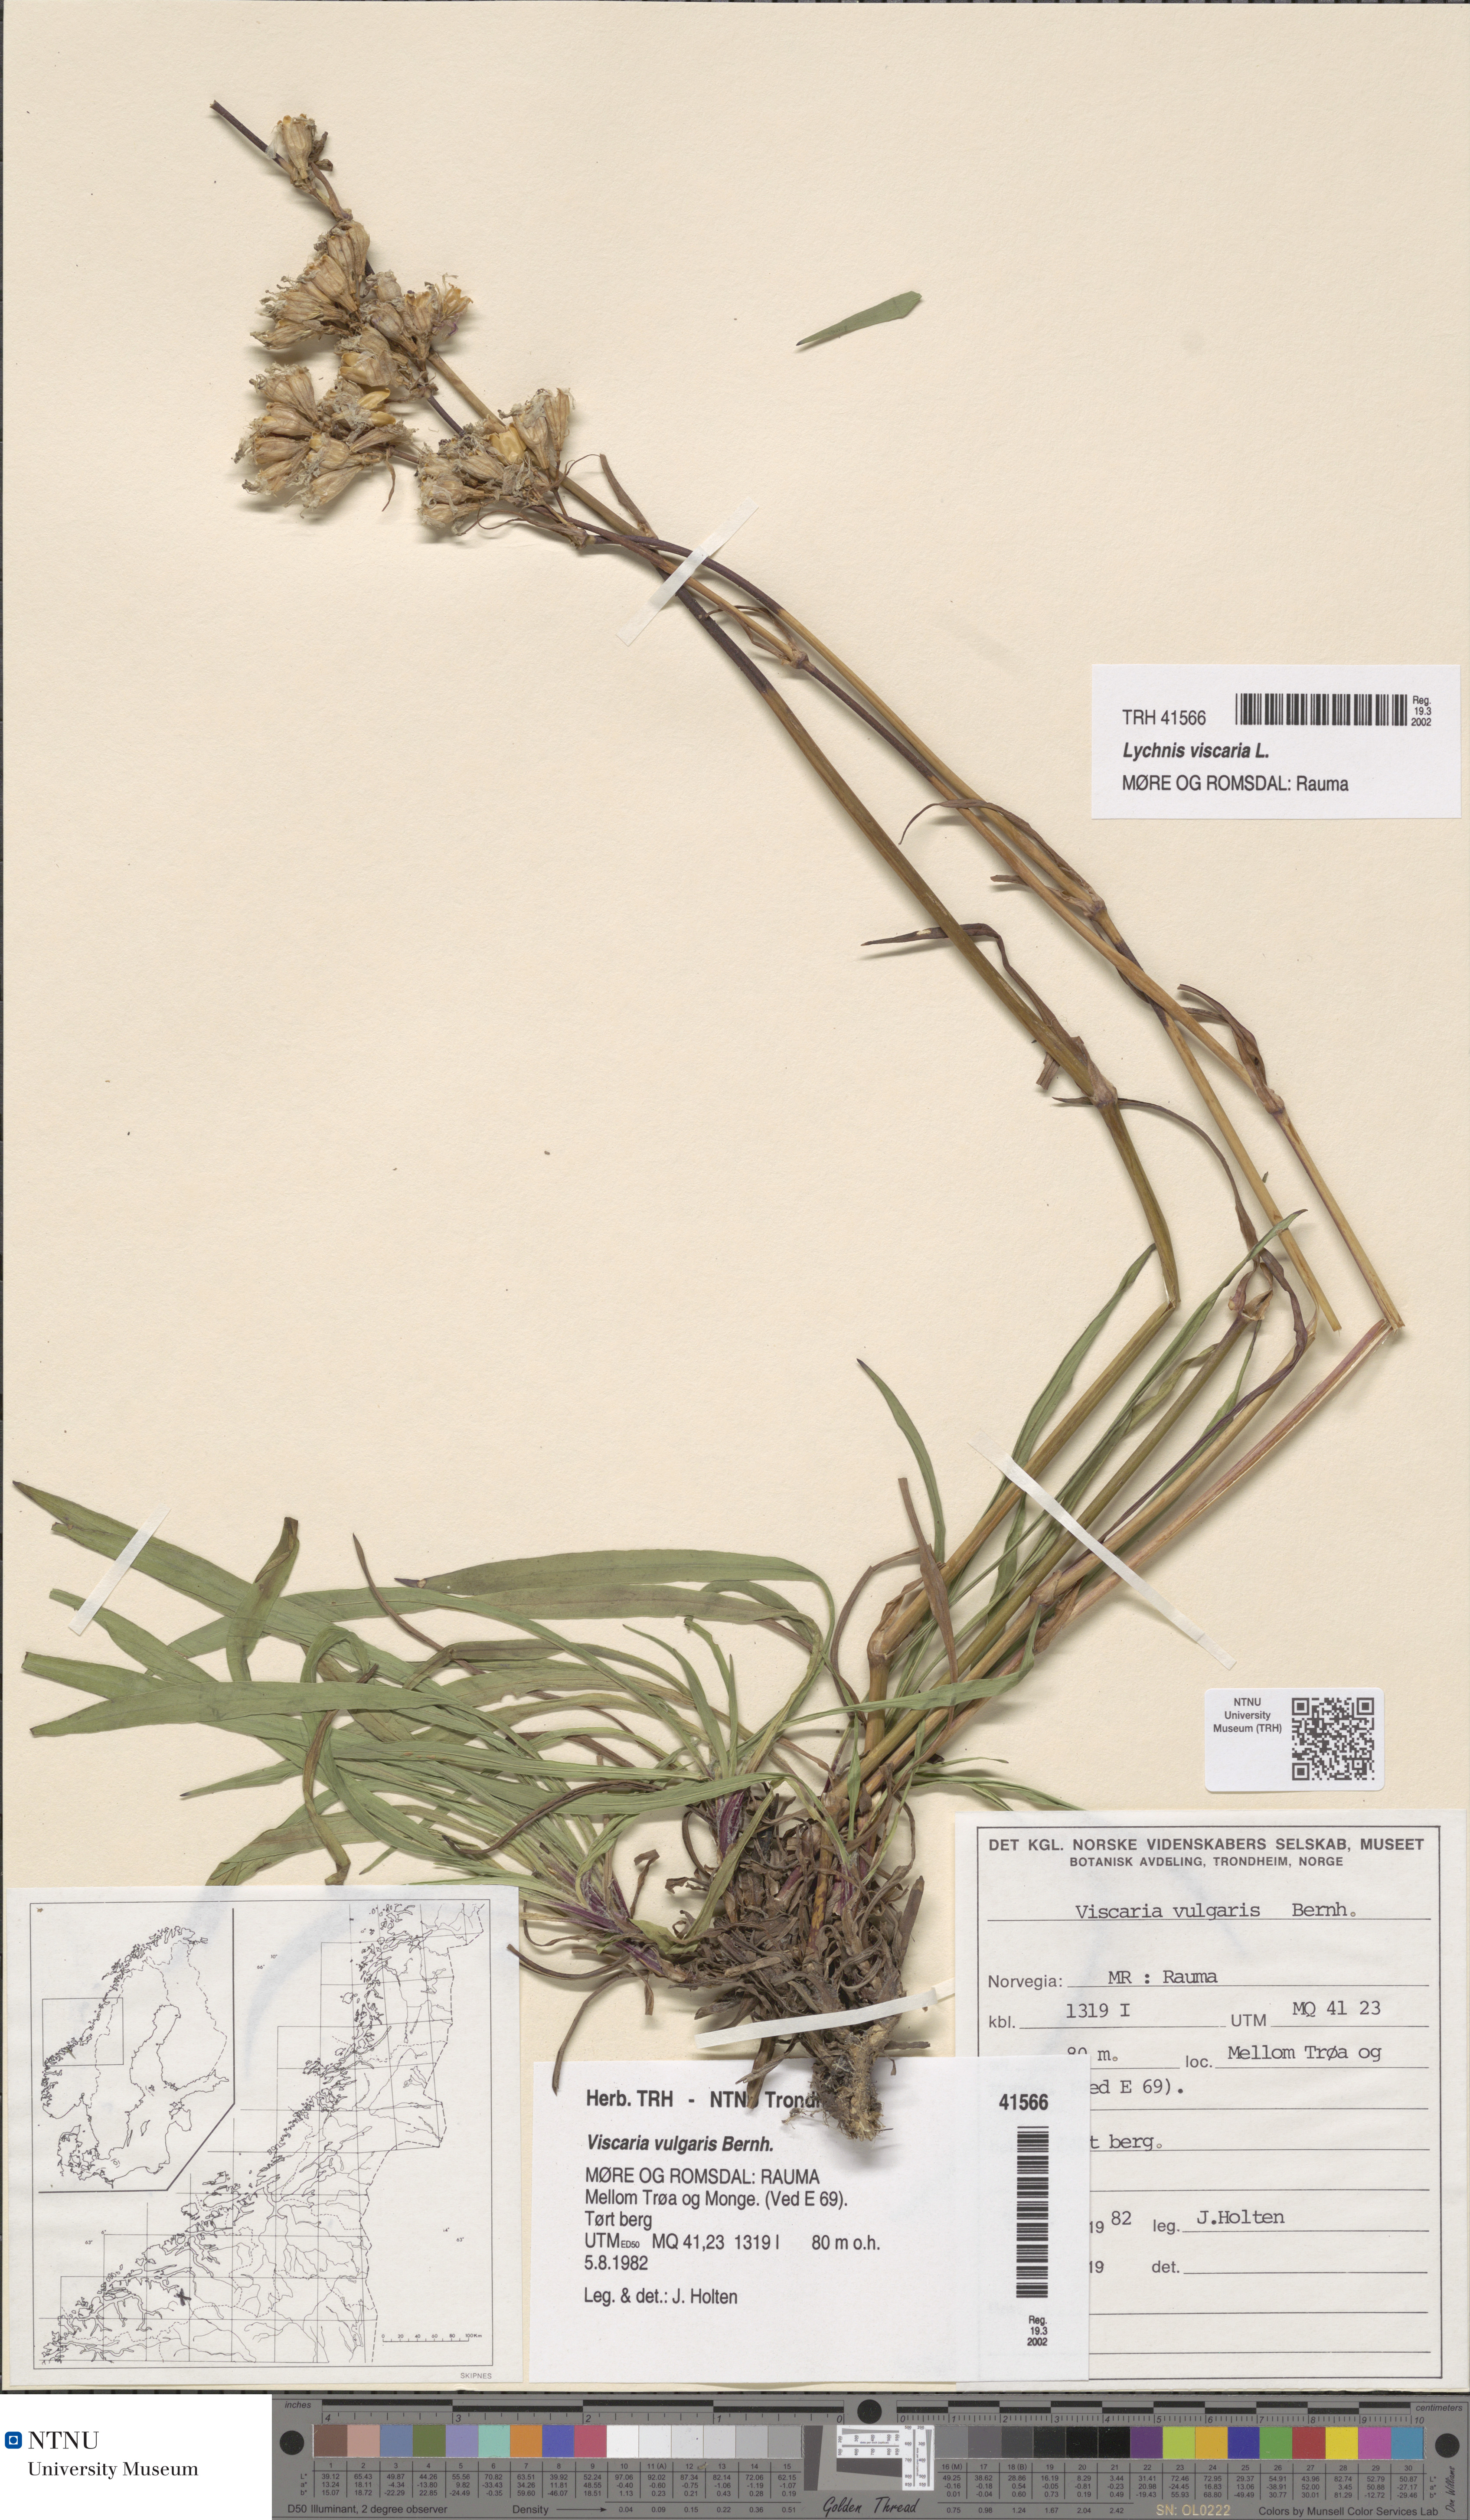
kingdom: Plantae
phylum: Tracheophyta
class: Magnoliopsida
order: Caryophyllales
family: Caryophyllaceae
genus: Viscaria
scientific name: Viscaria vulgaris
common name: Clammy campion
